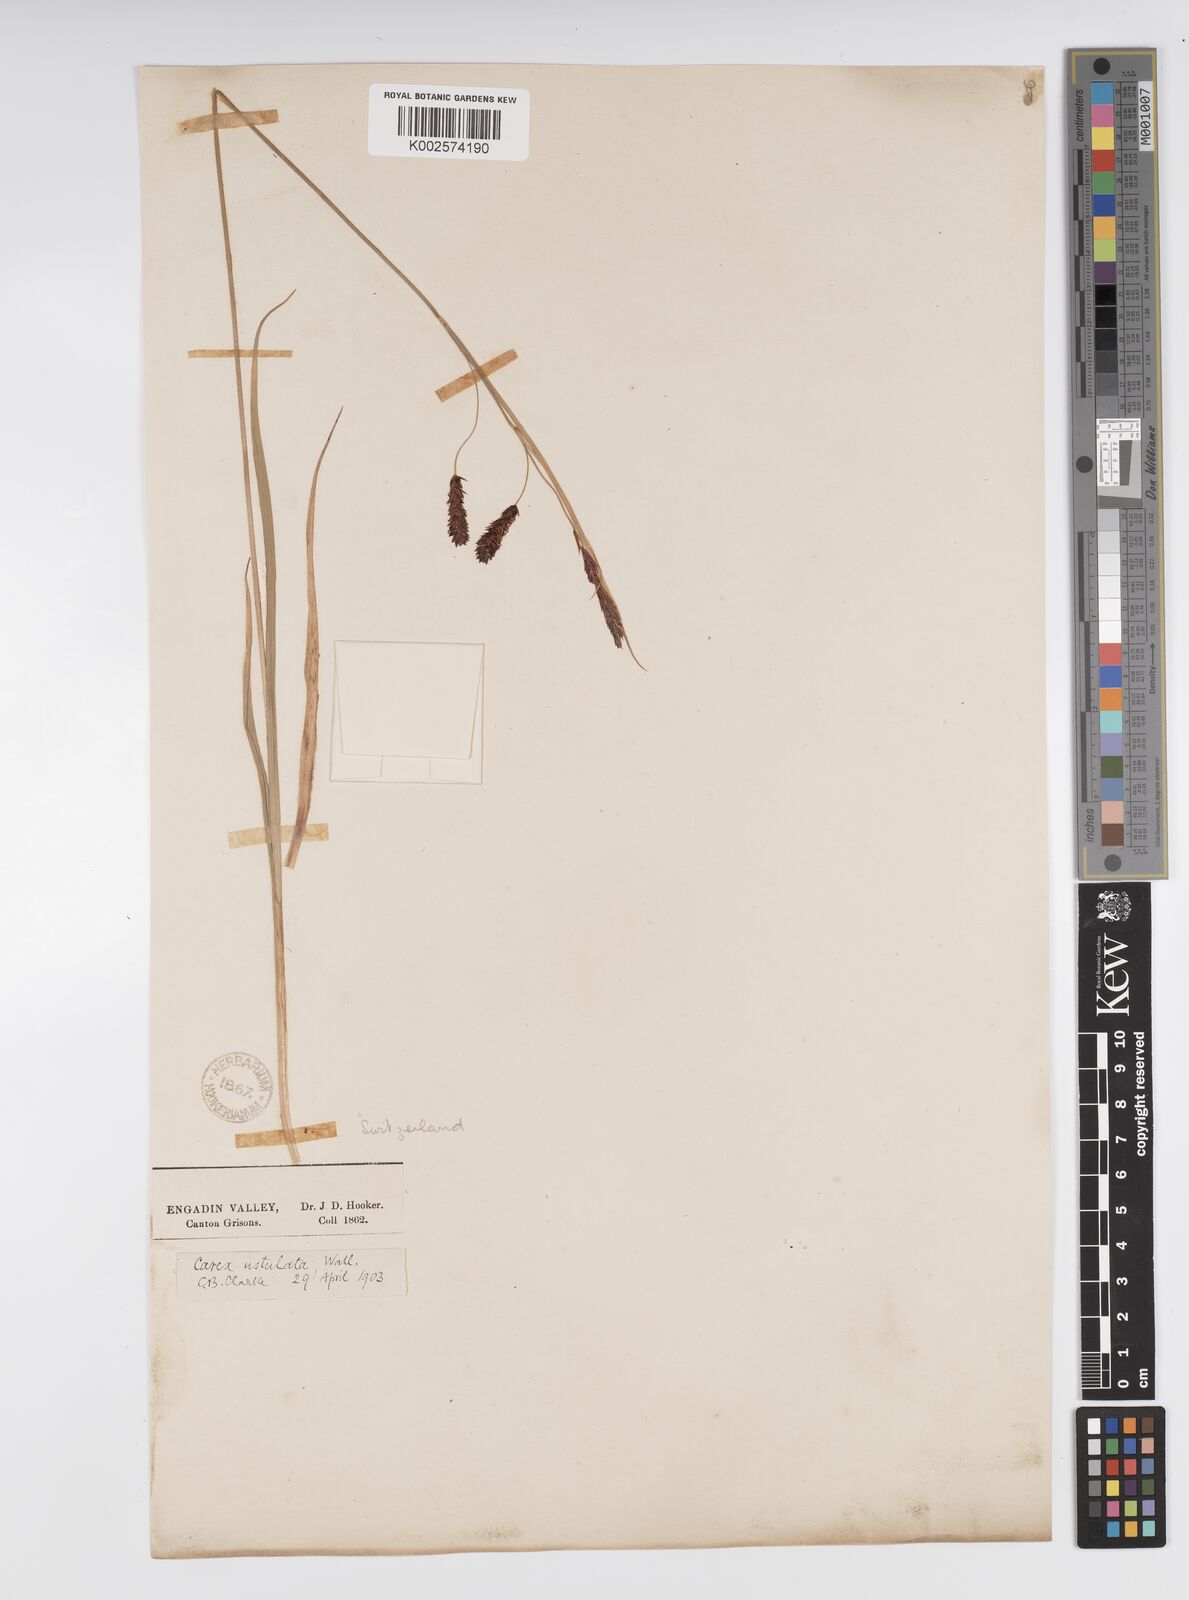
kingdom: Plantae
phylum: Tracheophyta
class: Liliopsida
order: Poales
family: Cyperaceae
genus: Carex
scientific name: Carex frigida
